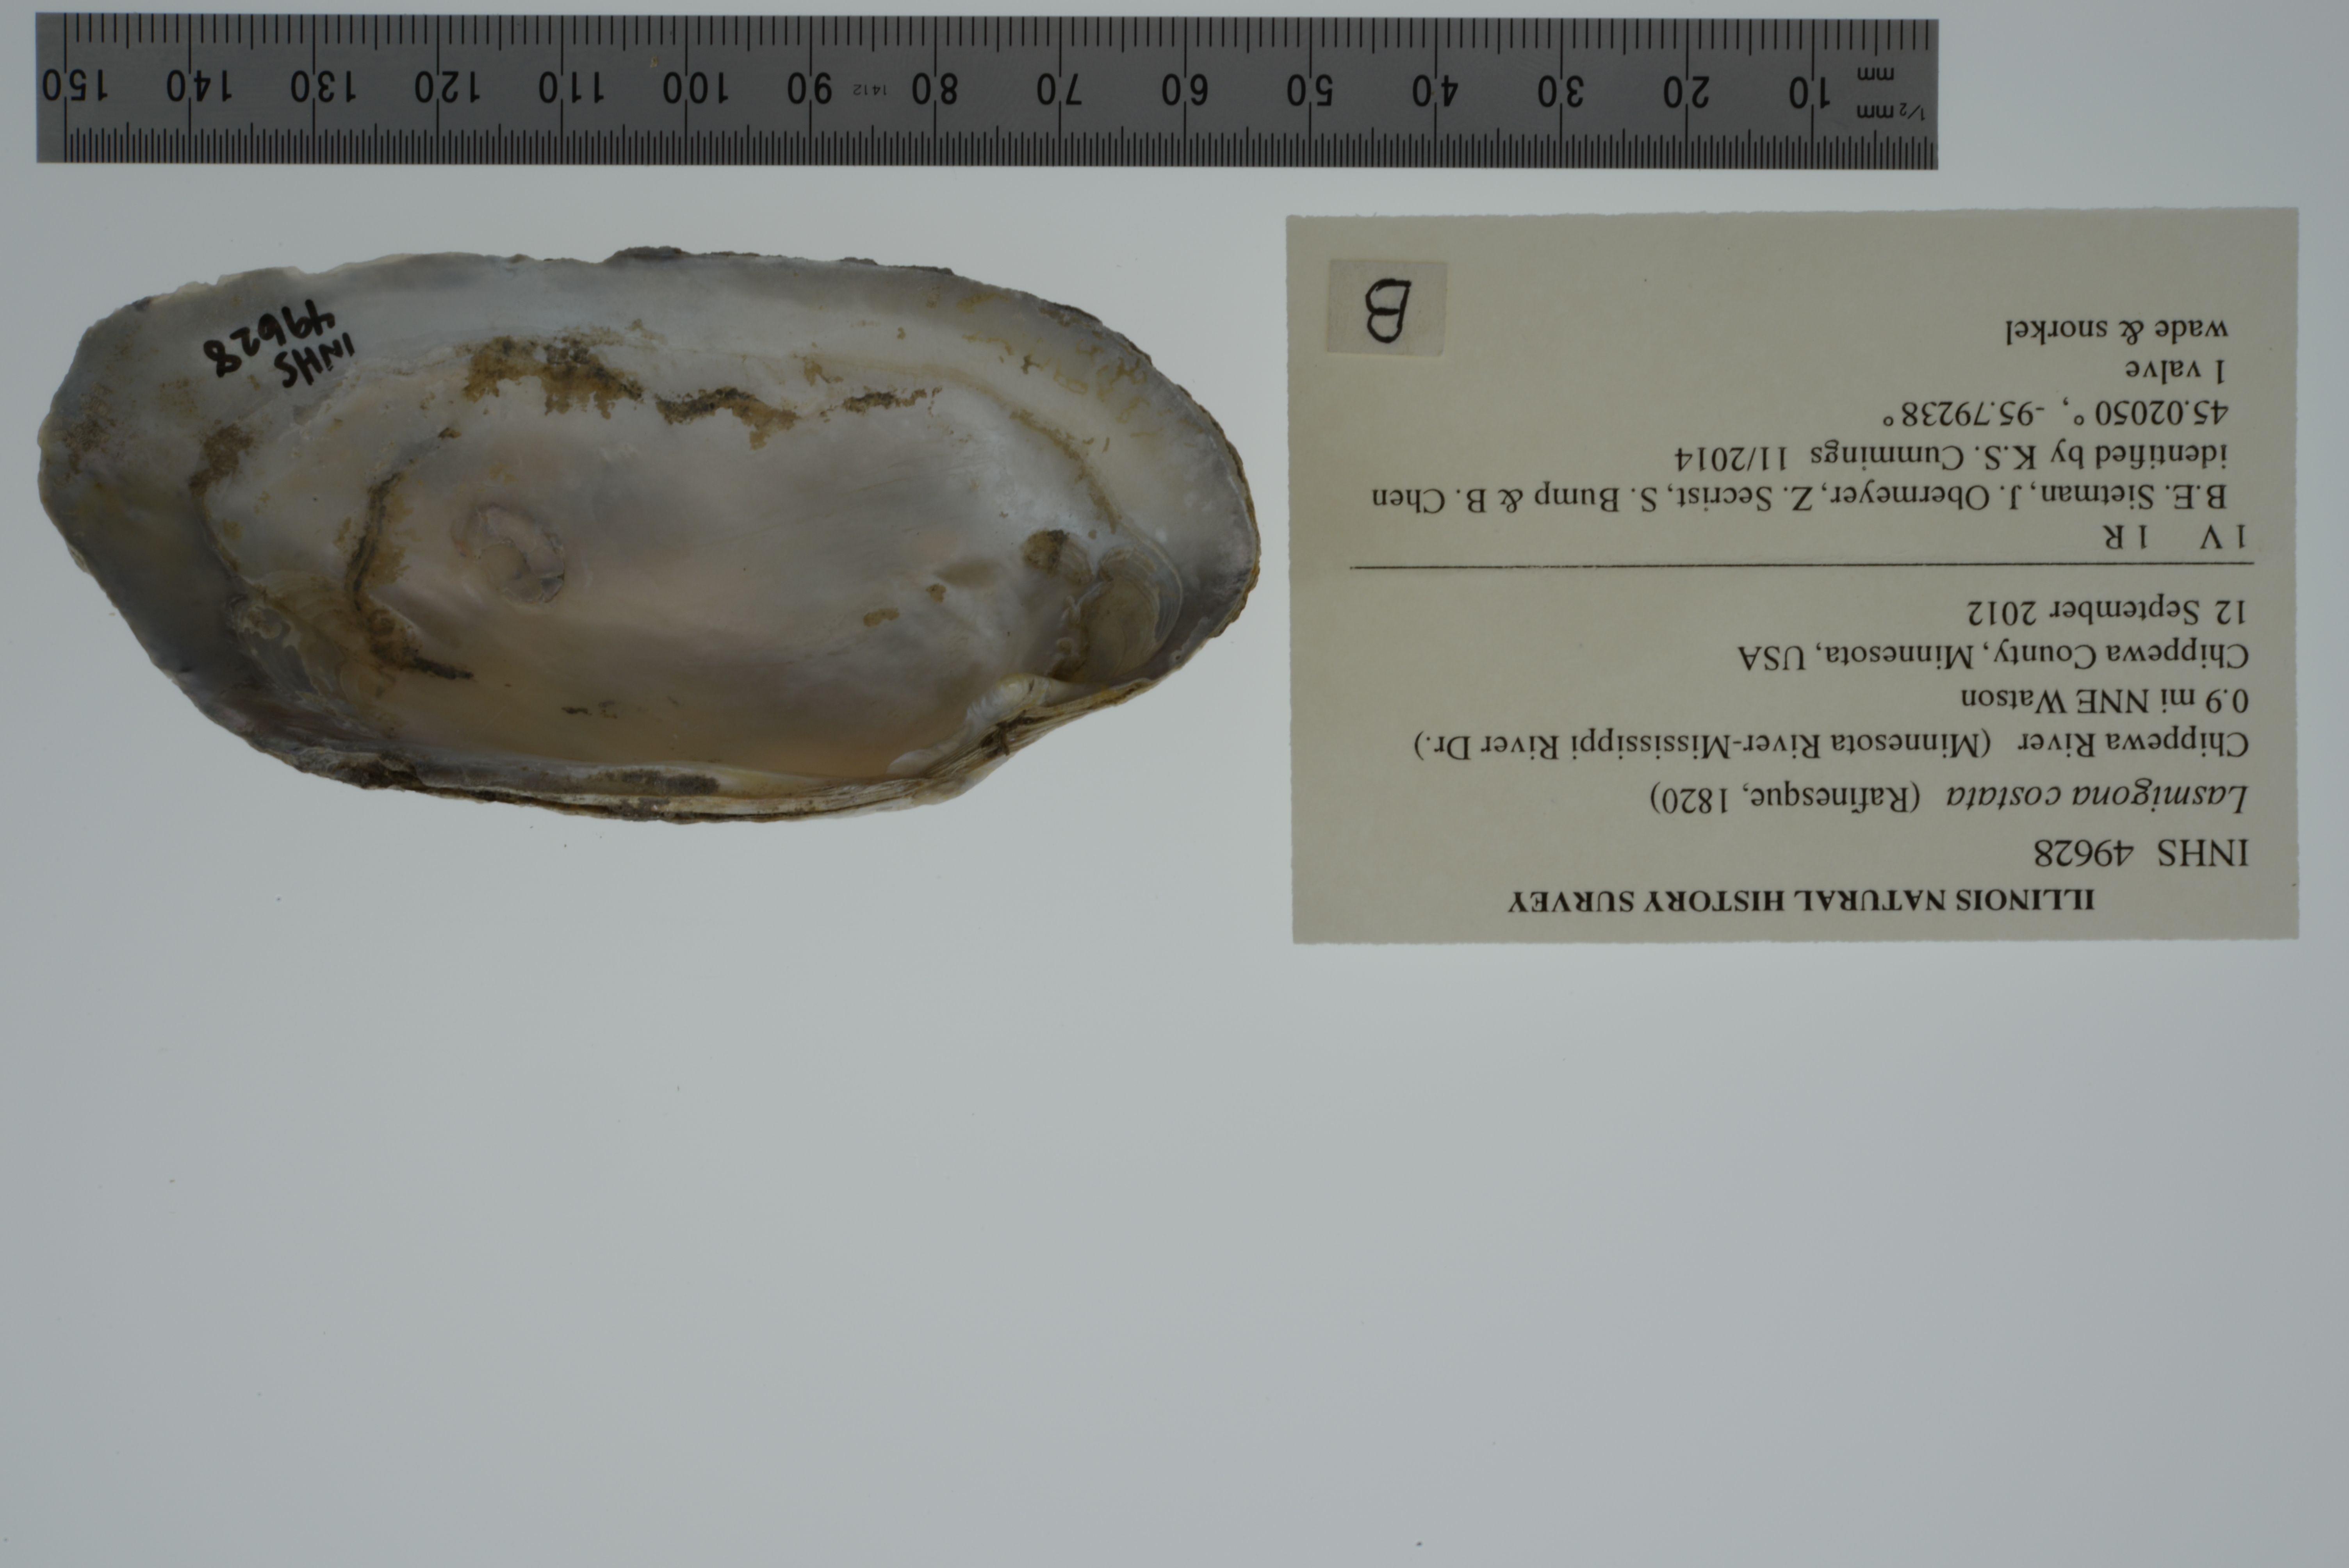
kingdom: Animalia
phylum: Mollusca
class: Bivalvia
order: Unionida
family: Unionidae
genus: Lasmigona
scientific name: Lasmigona costata
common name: Flutedshell
